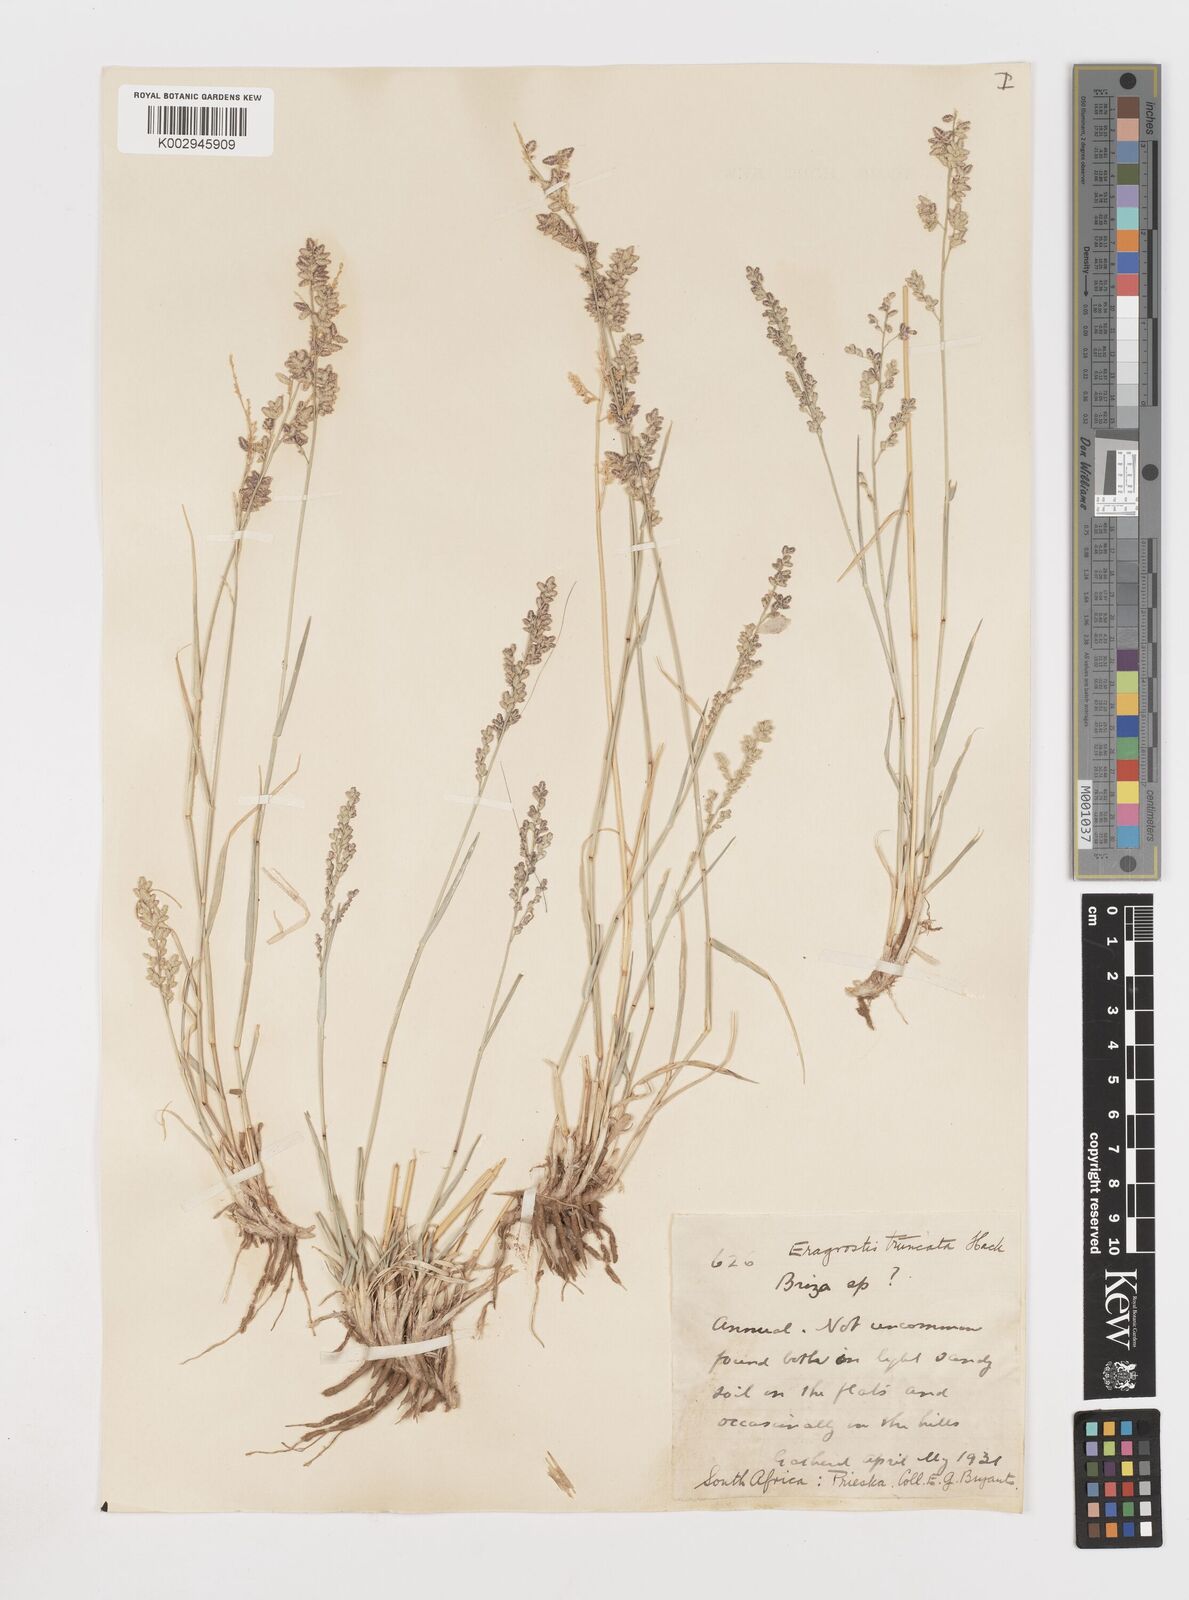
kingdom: Plantae
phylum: Tracheophyta
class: Liliopsida
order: Poales
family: Poaceae
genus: Eragrostis
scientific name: Eragrostis truncata
